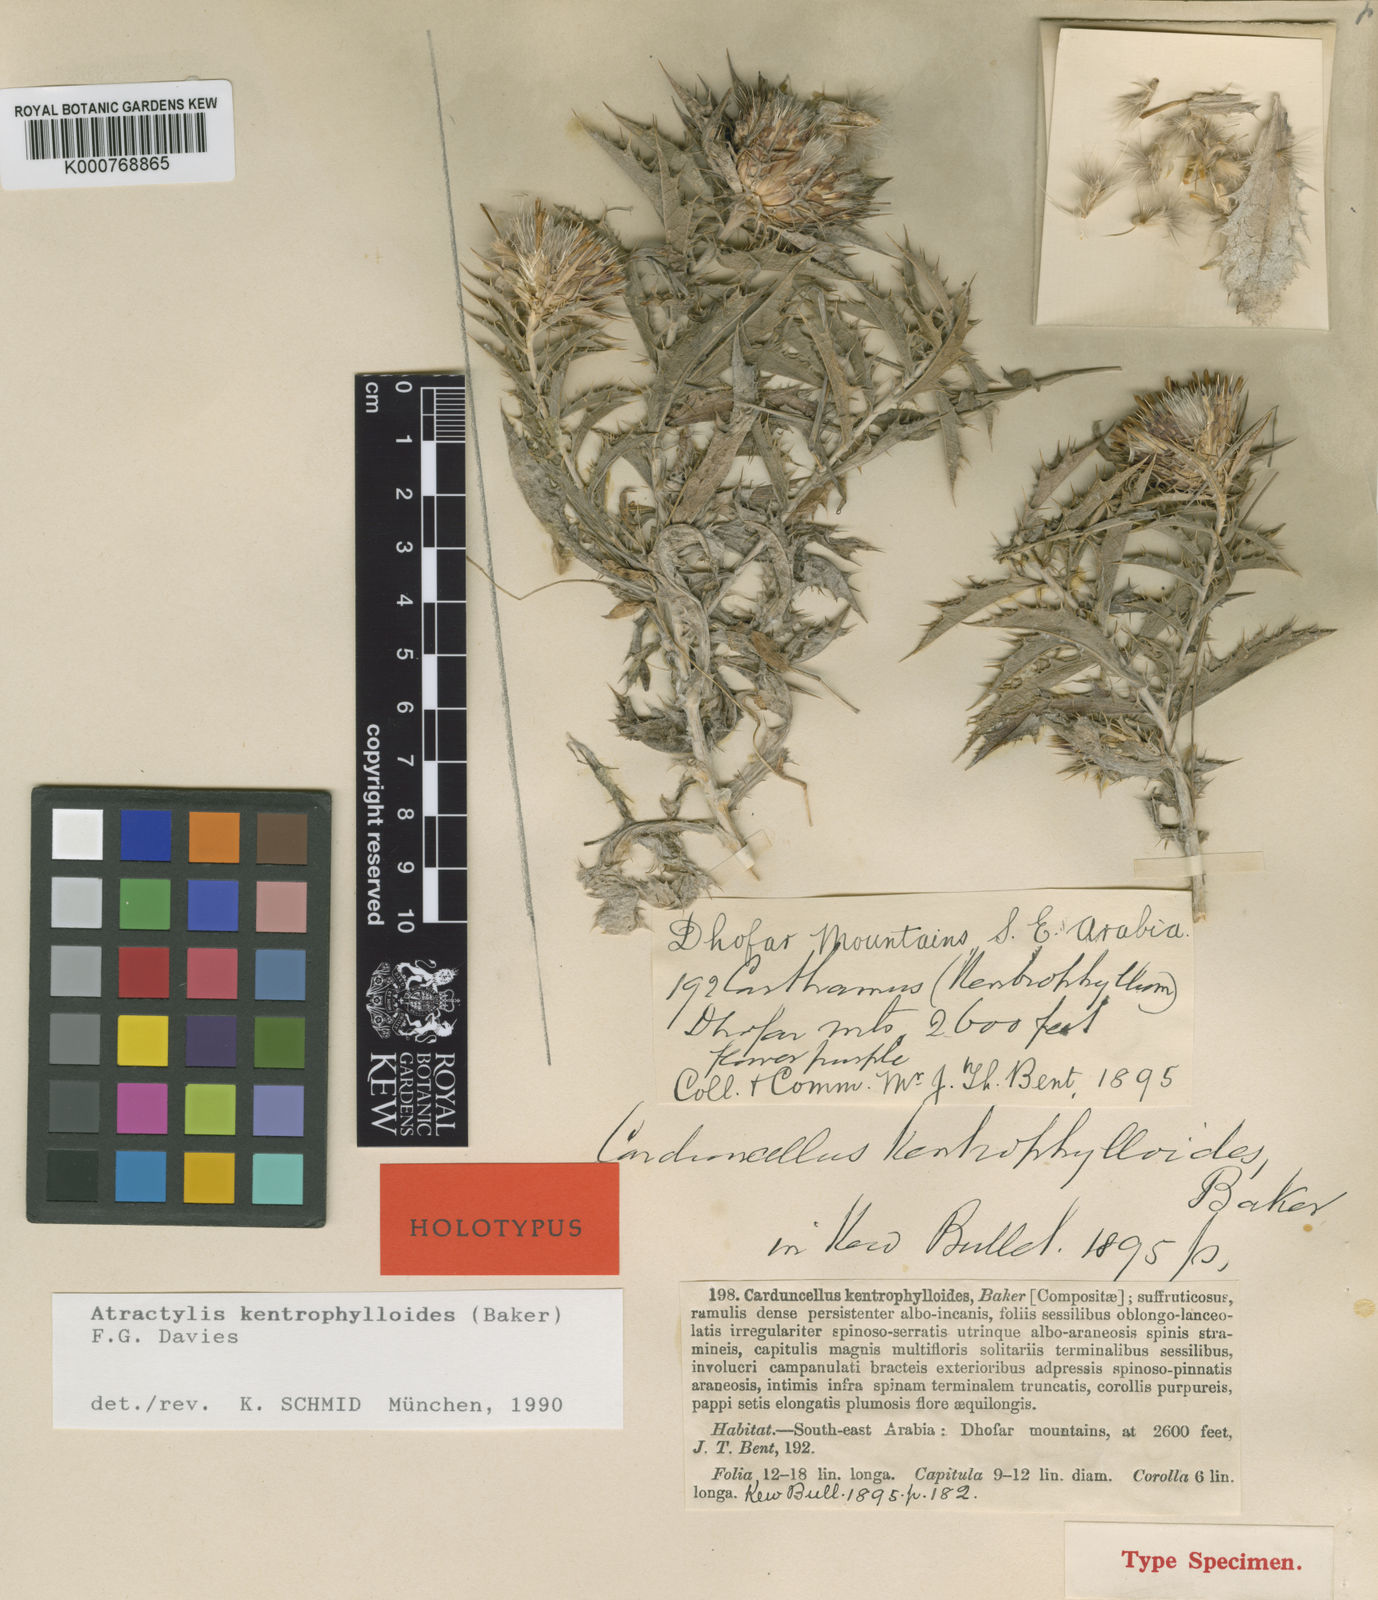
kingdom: Plantae
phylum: Tracheophyta
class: Magnoliopsida
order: Asterales
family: Asteraceae
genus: Atractylis
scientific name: Atractylis kentrophylloides
